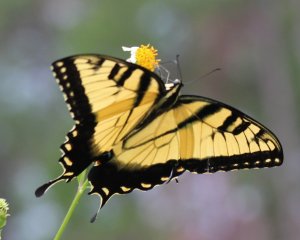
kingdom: Animalia
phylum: Arthropoda
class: Insecta
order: Lepidoptera
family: Papilionidae
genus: Pterourus
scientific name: Pterourus glaucus
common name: Eastern Tiger Swallowtail
